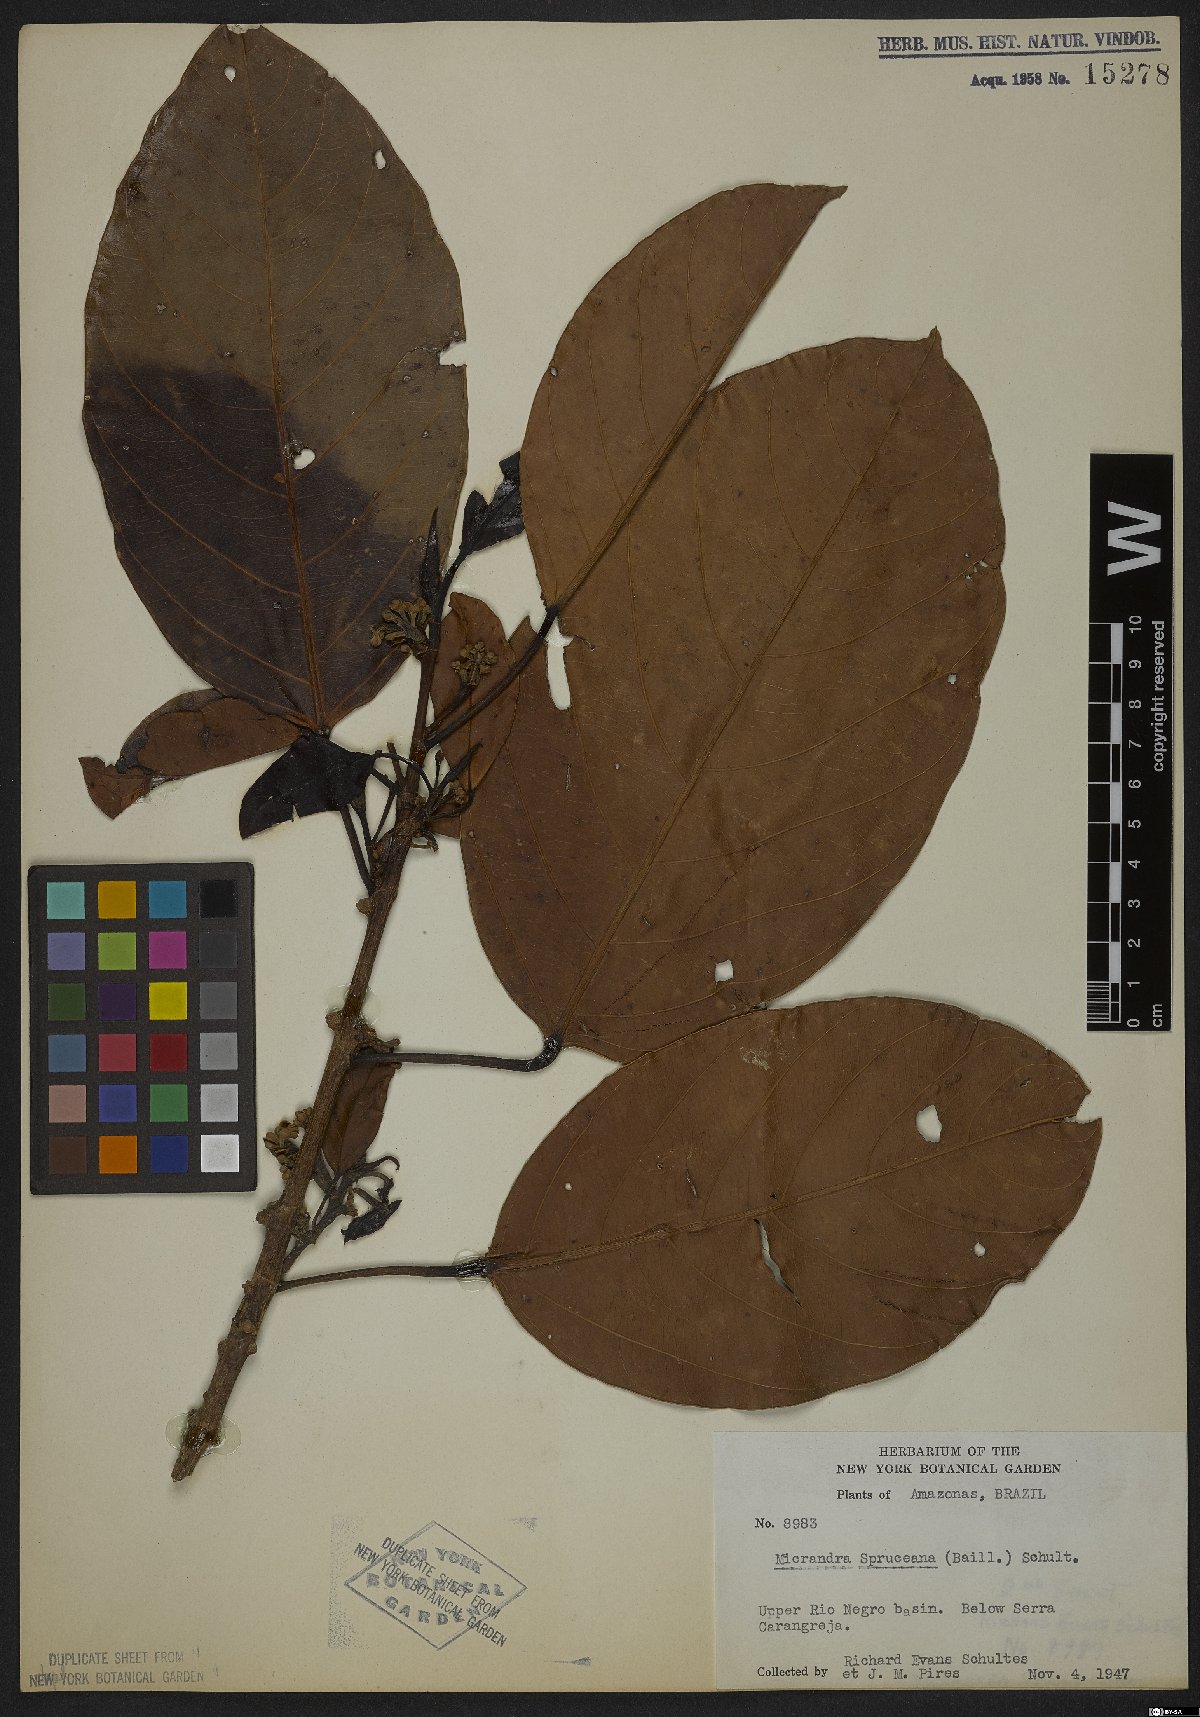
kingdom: Plantae
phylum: Tracheophyta
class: Magnoliopsida
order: Malpighiales
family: Euphorbiaceae
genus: Micrandra
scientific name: Micrandra spruceana
